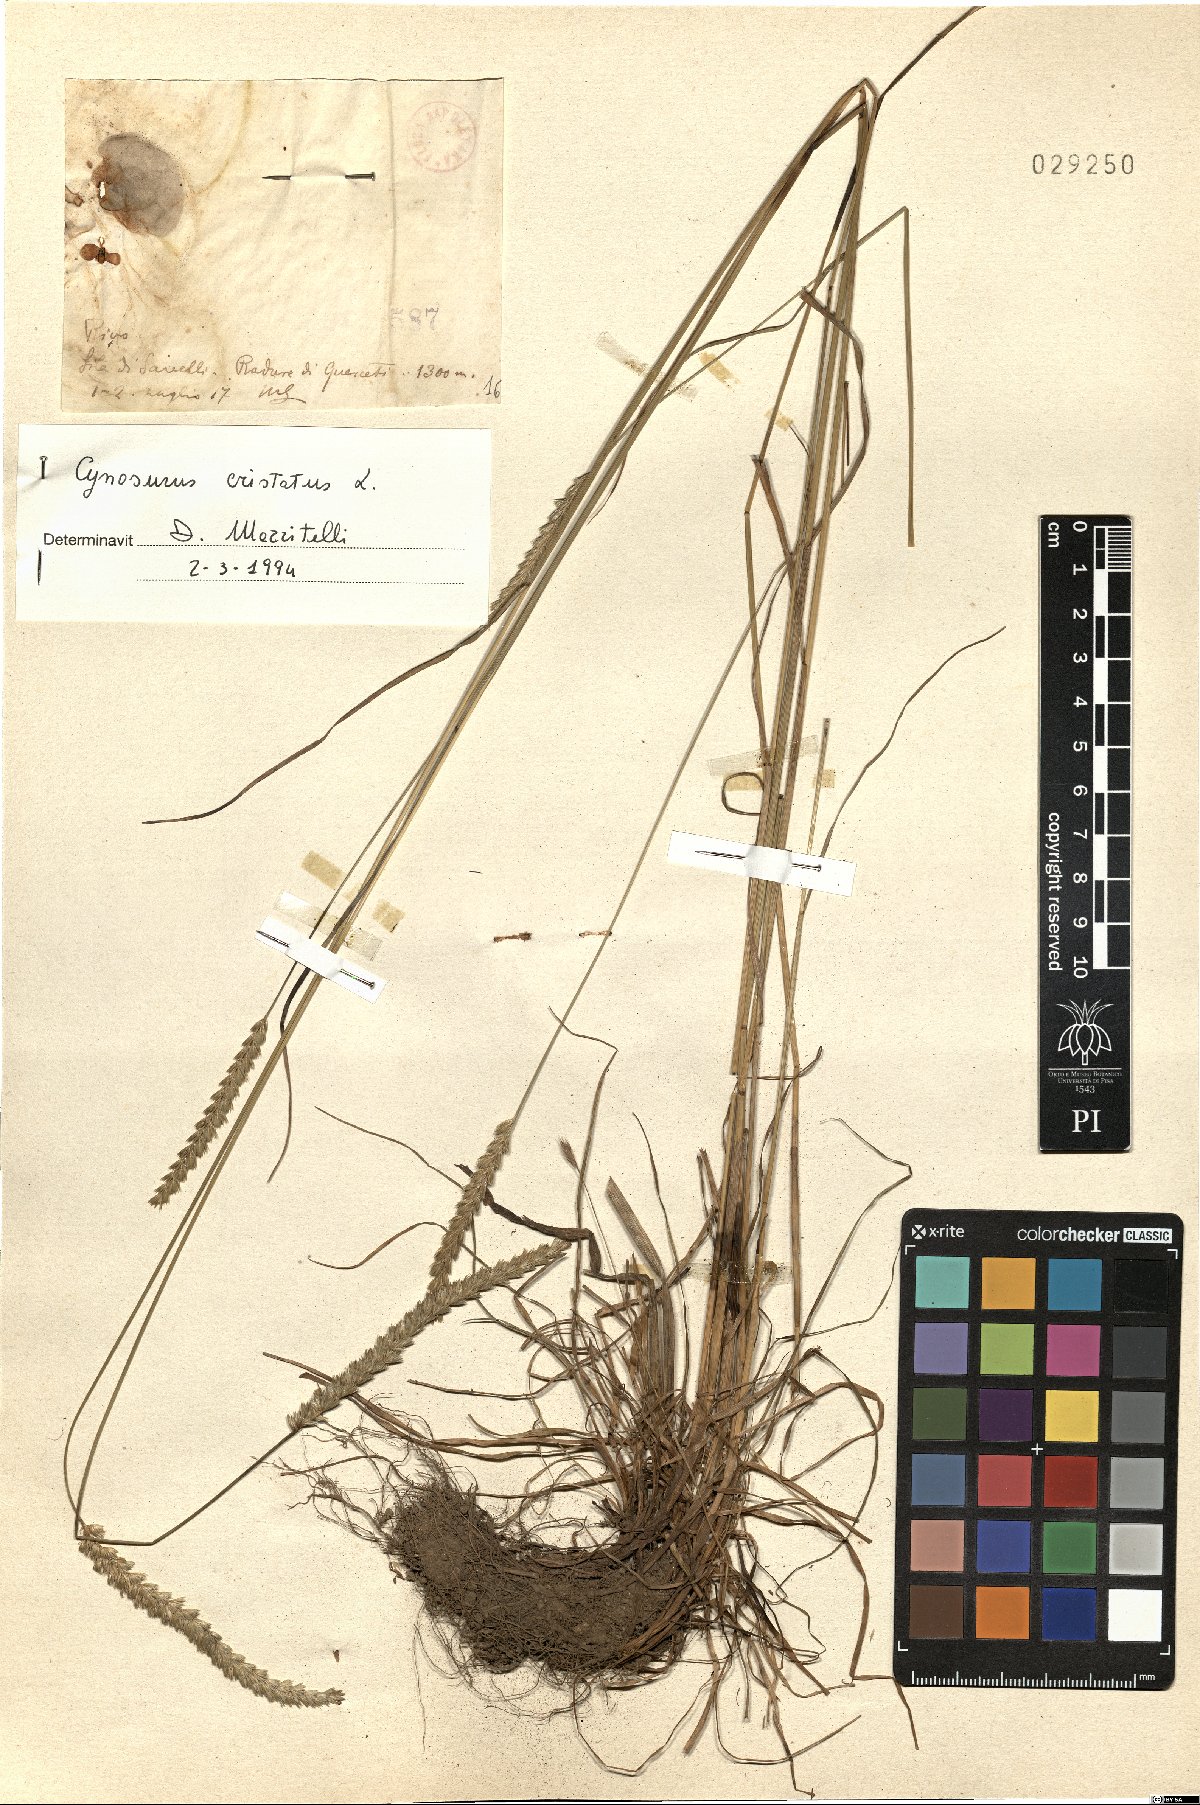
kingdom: Plantae
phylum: Tracheophyta
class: Liliopsida
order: Poales
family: Poaceae
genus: Cynosurus
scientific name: Cynosurus cristatus
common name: Crested dog's-tail
